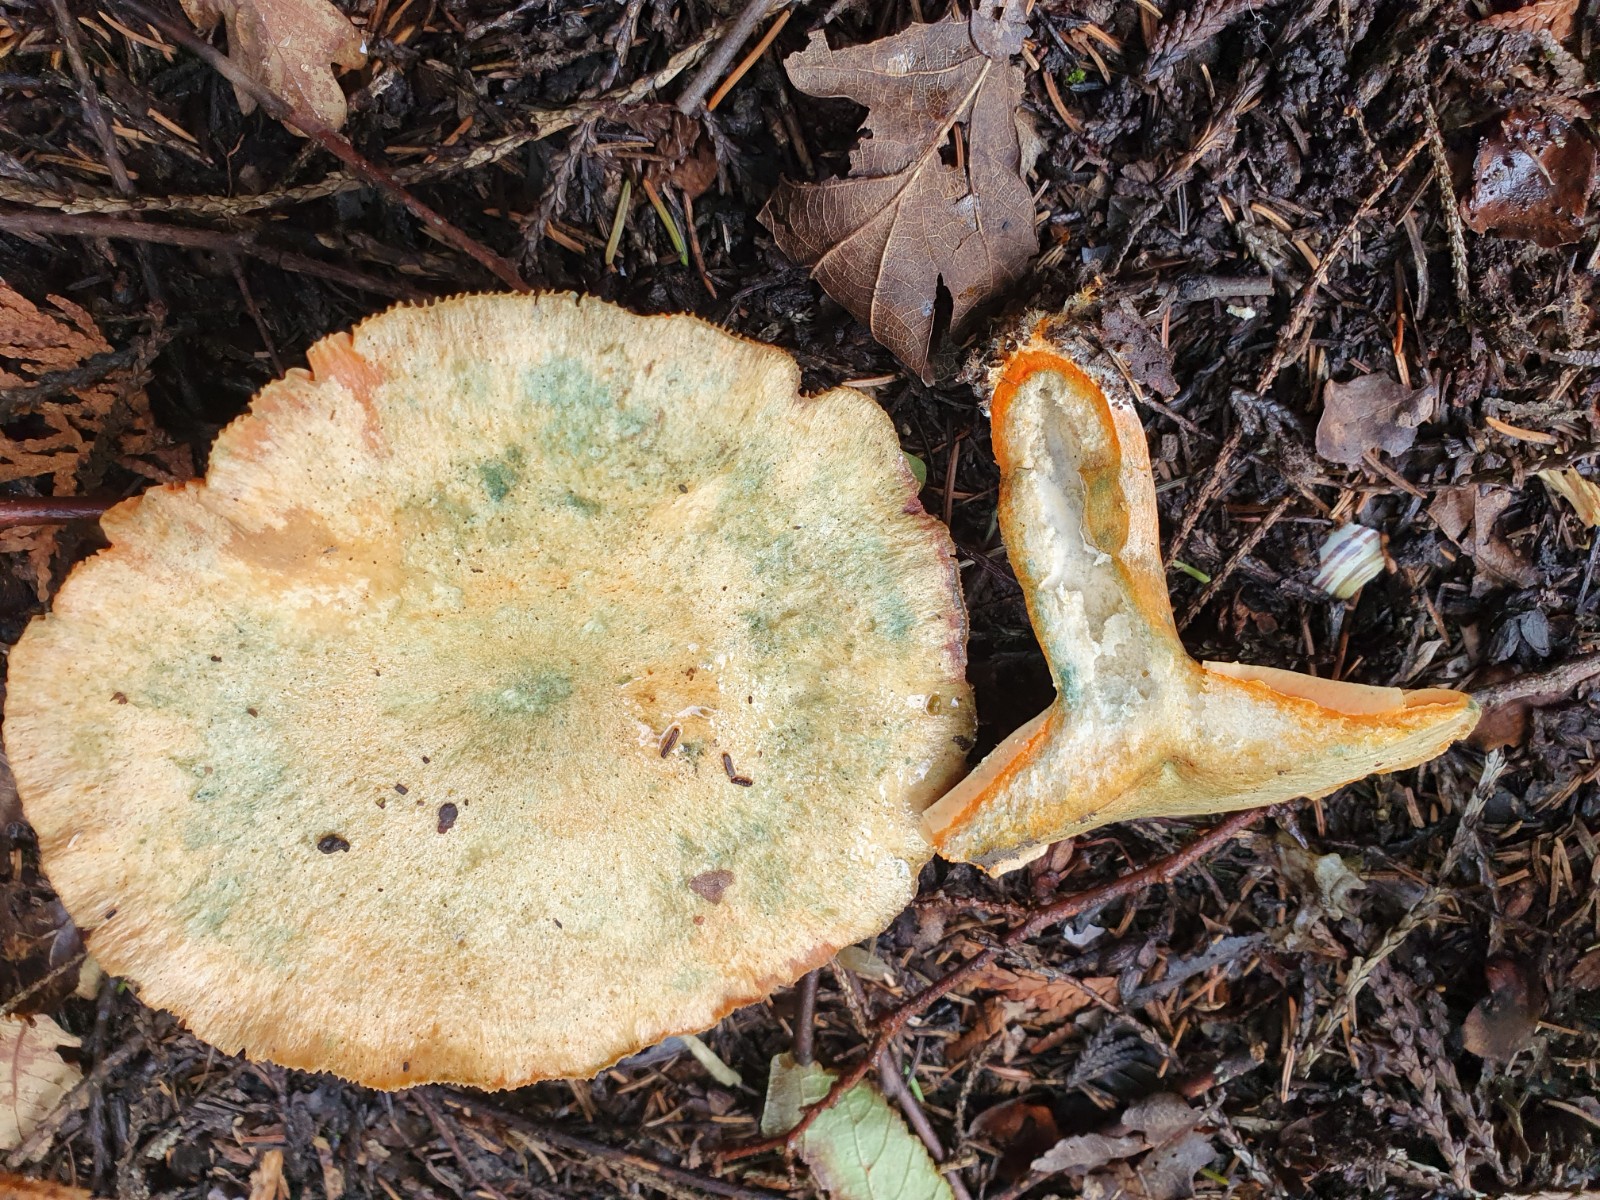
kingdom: Fungi
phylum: Basidiomycota
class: Agaricomycetes
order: Russulales
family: Russulaceae
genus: Lactarius
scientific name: Lactarius deterrimus
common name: gran-mælkehat
